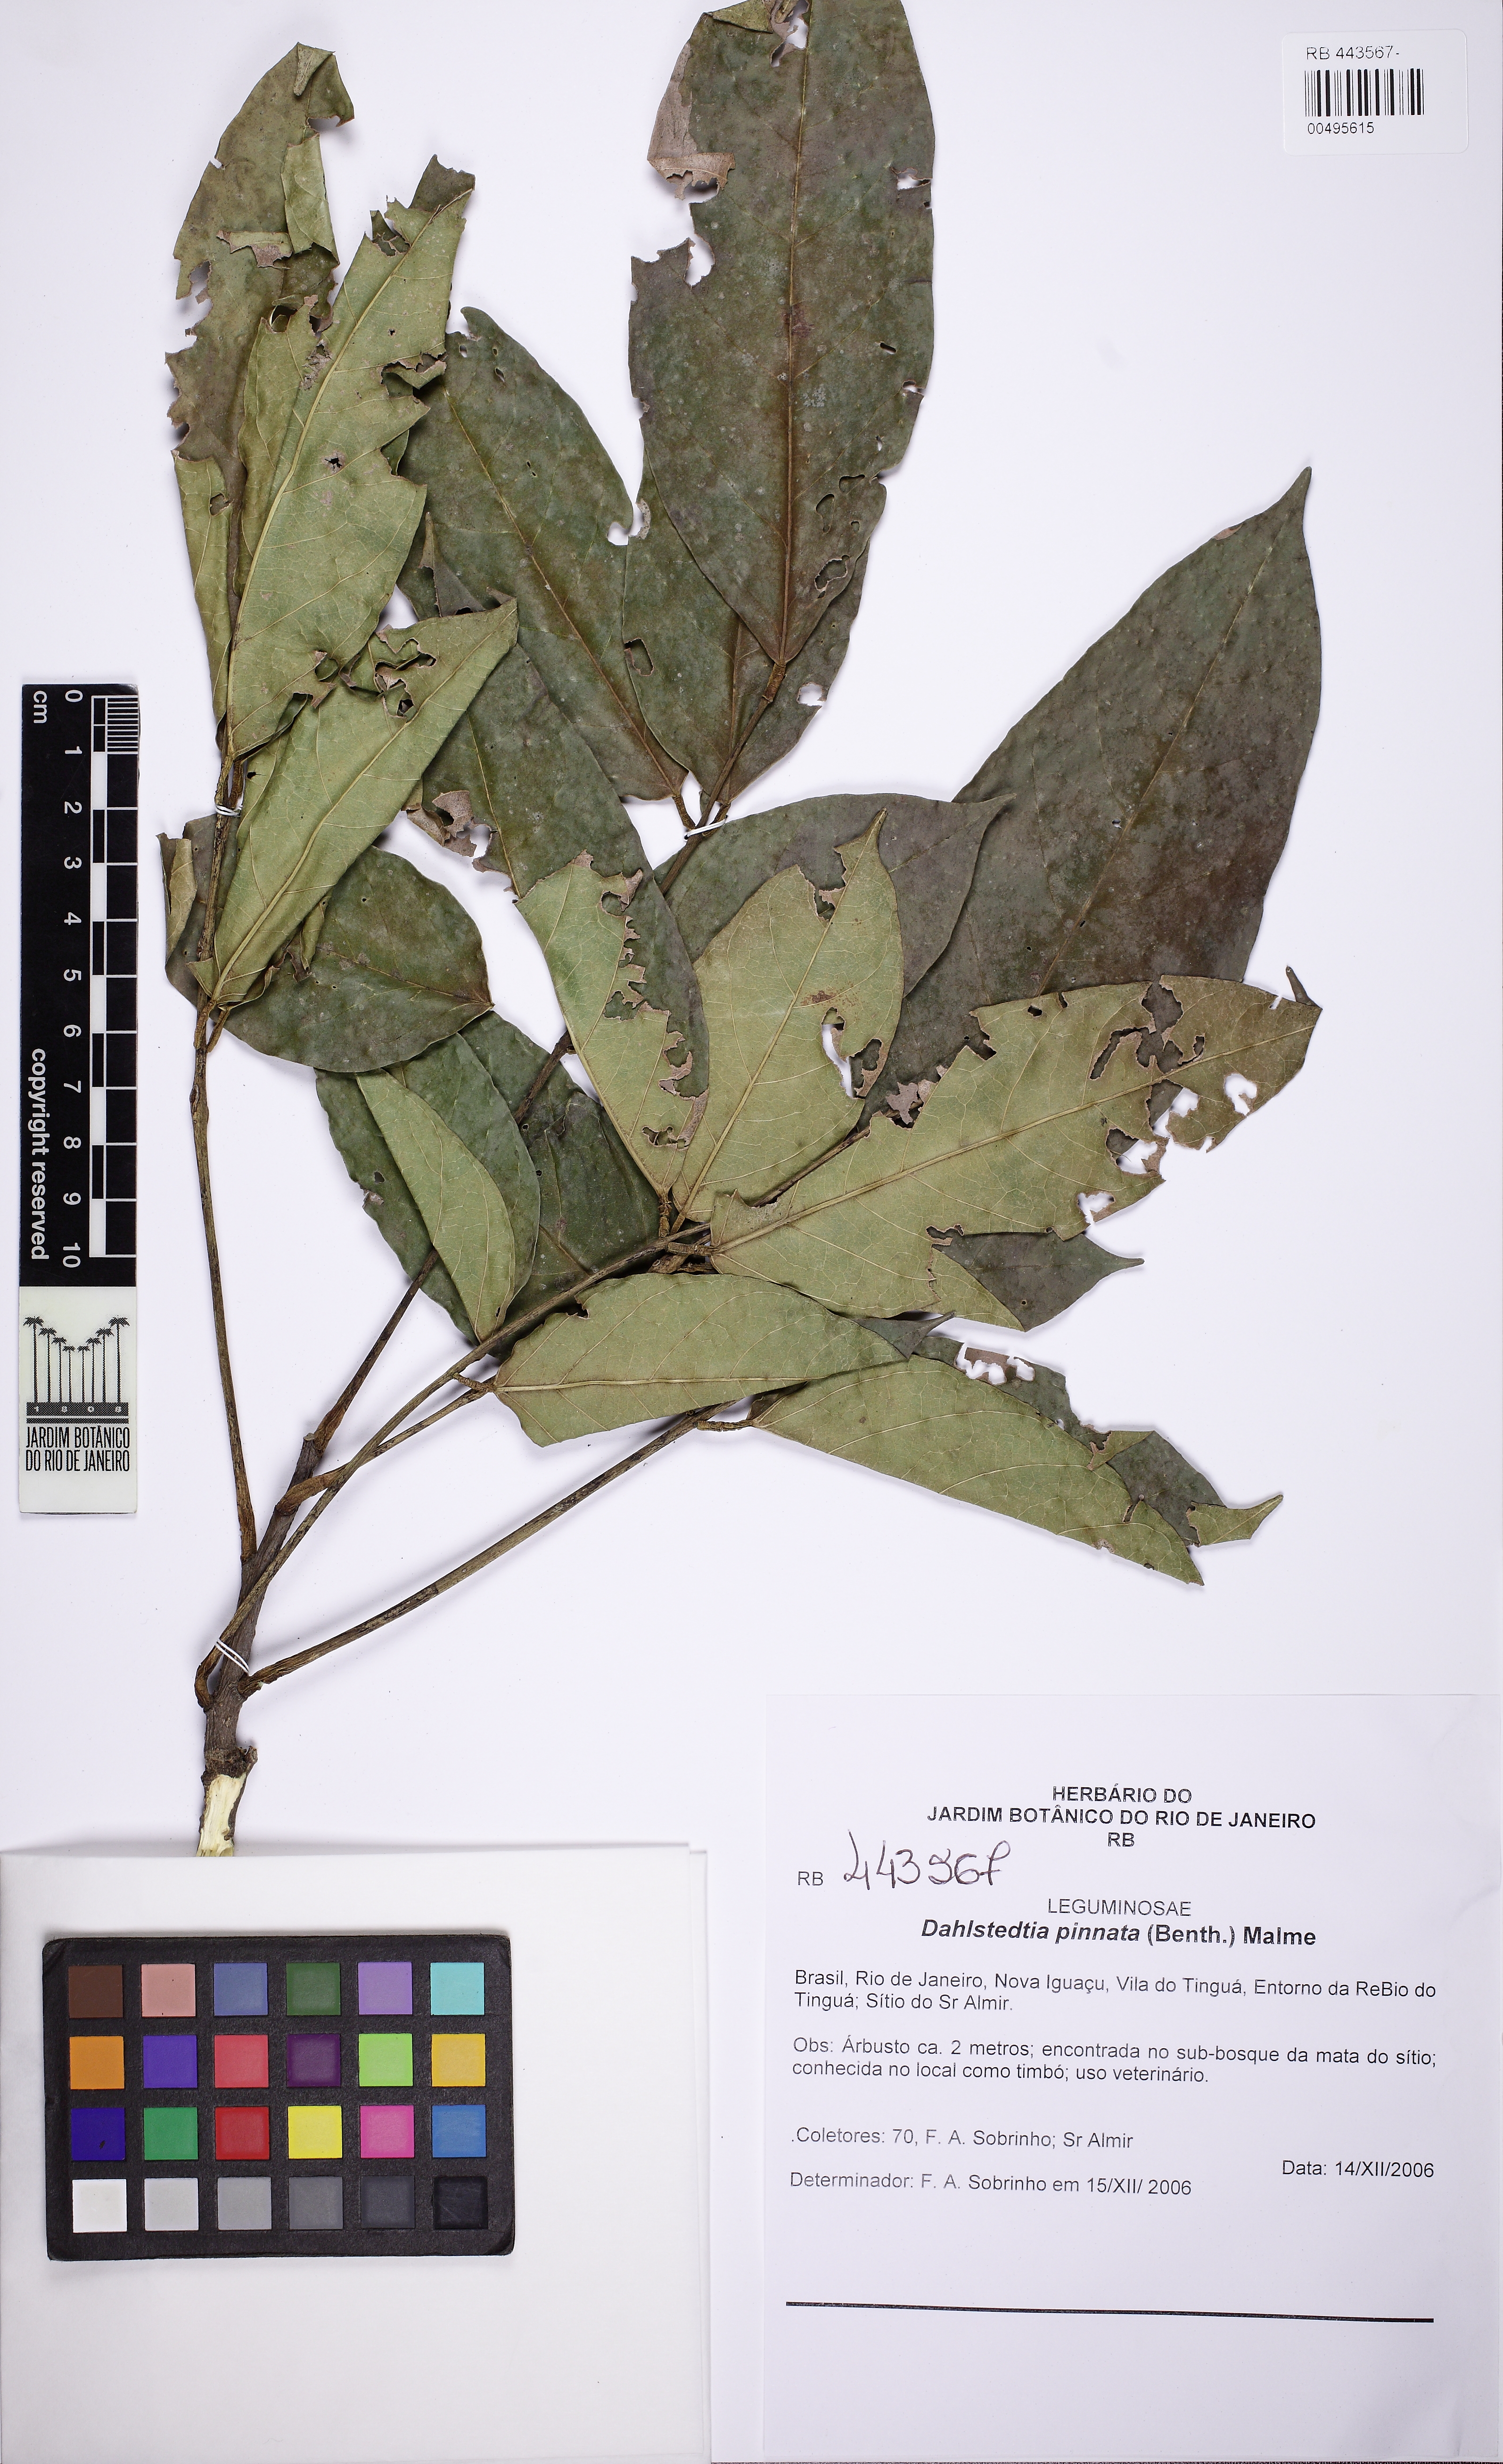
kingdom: Plantae
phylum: Tracheophyta
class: Magnoliopsida
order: Fabales
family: Fabaceae
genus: Dahlstedtia
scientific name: Dahlstedtia pinnata
